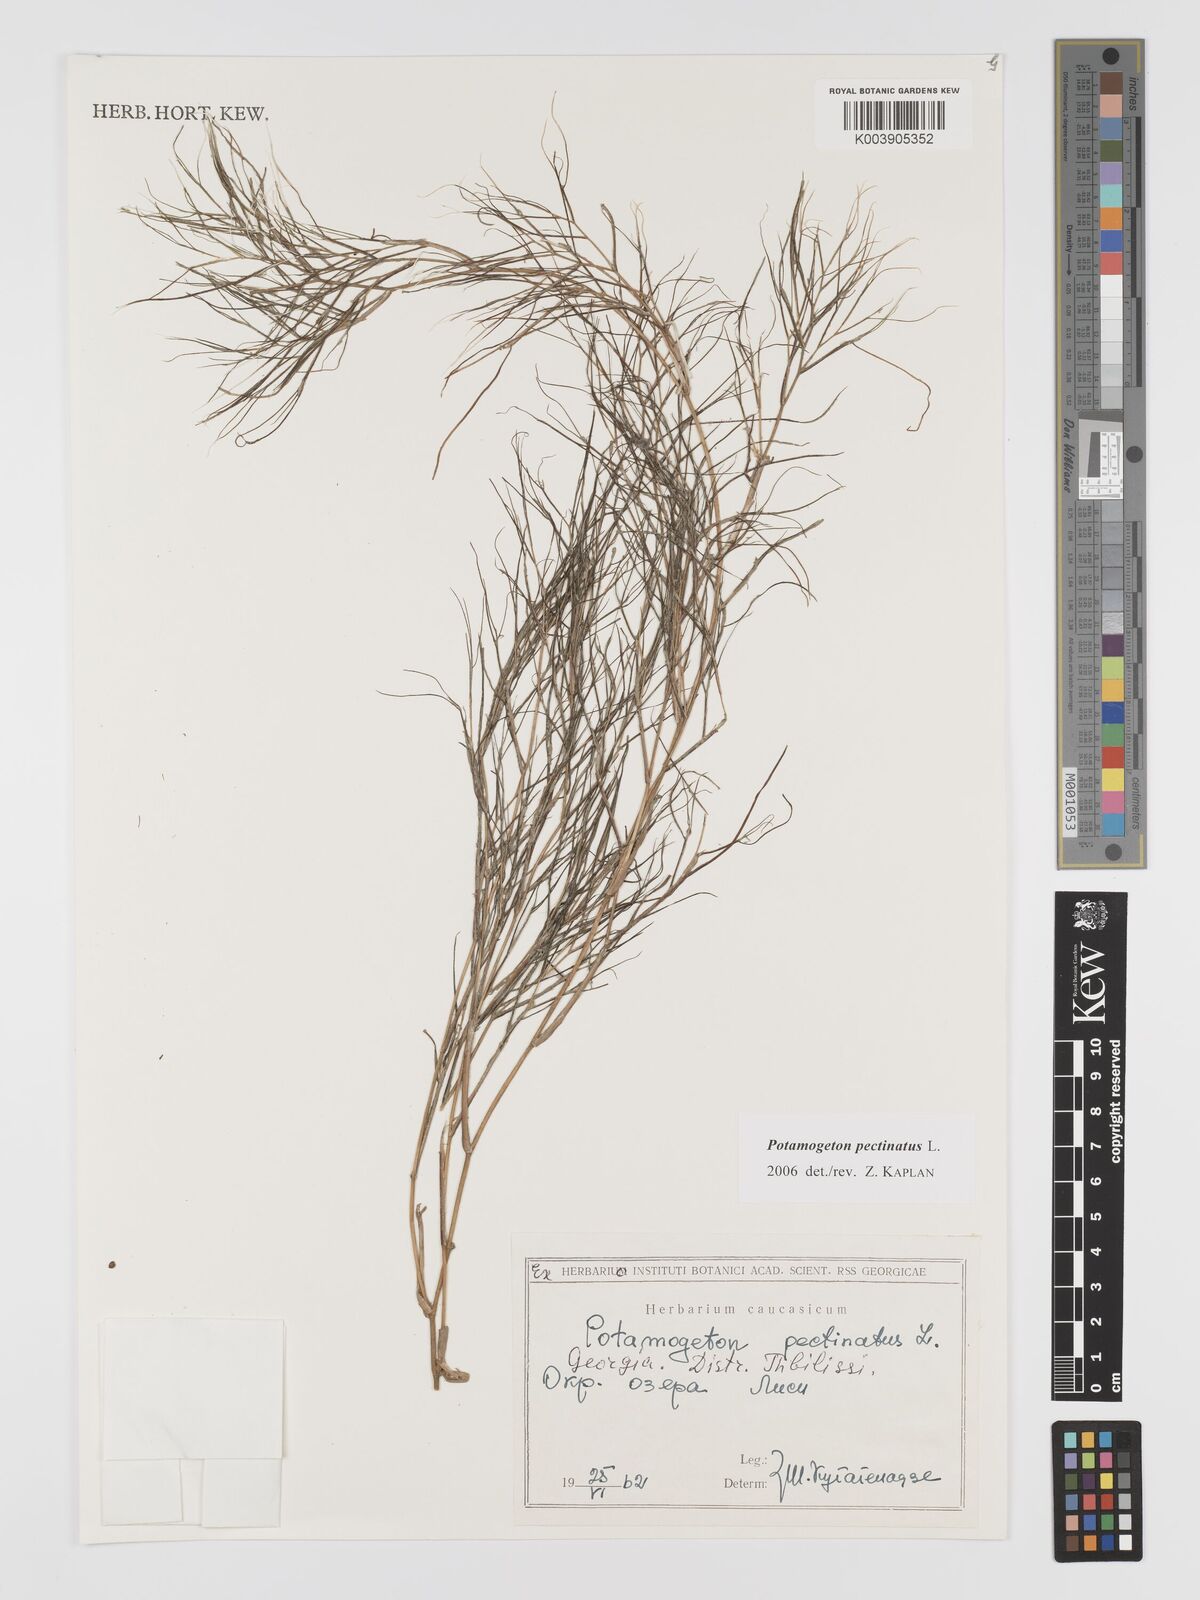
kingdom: Plantae
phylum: Tracheophyta
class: Liliopsida
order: Alismatales
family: Potamogetonaceae
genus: Stuckenia
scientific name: Stuckenia pectinata
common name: Sago pondweed
